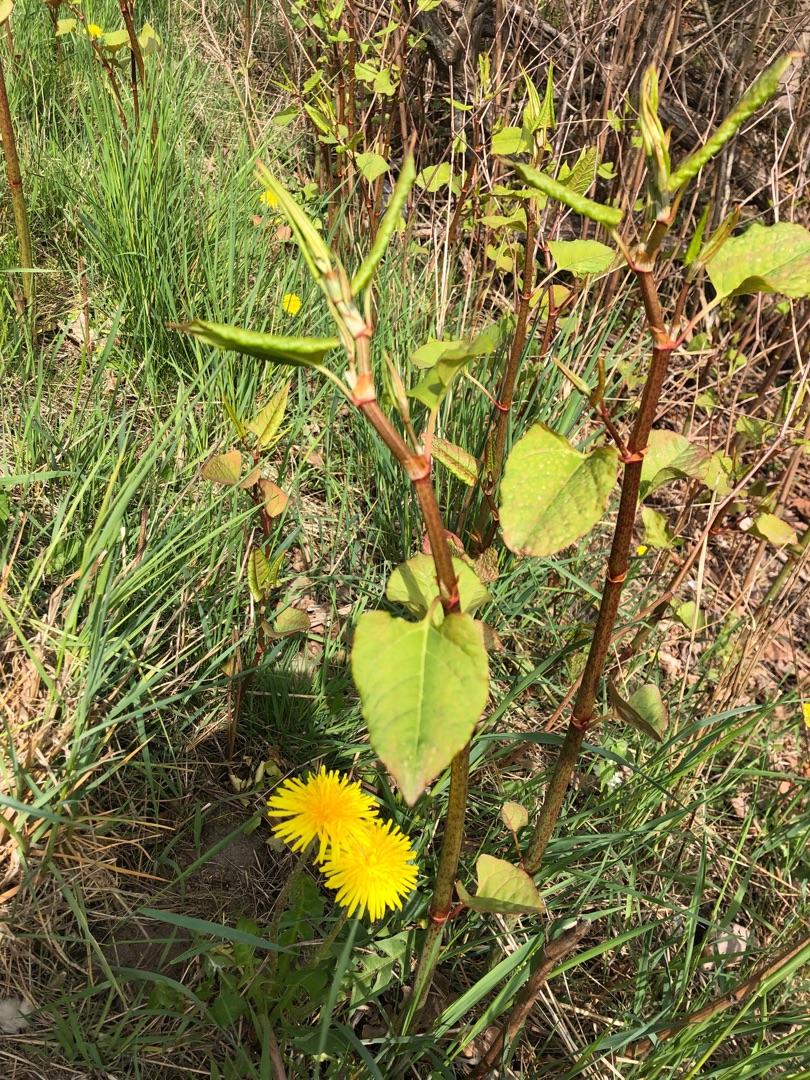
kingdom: Plantae
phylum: Tracheophyta
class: Magnoliopsida
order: Caryophyllales
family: Polygonaceae
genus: Reynoutria
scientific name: Reynoutria japonica
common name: Japan-pileurt
